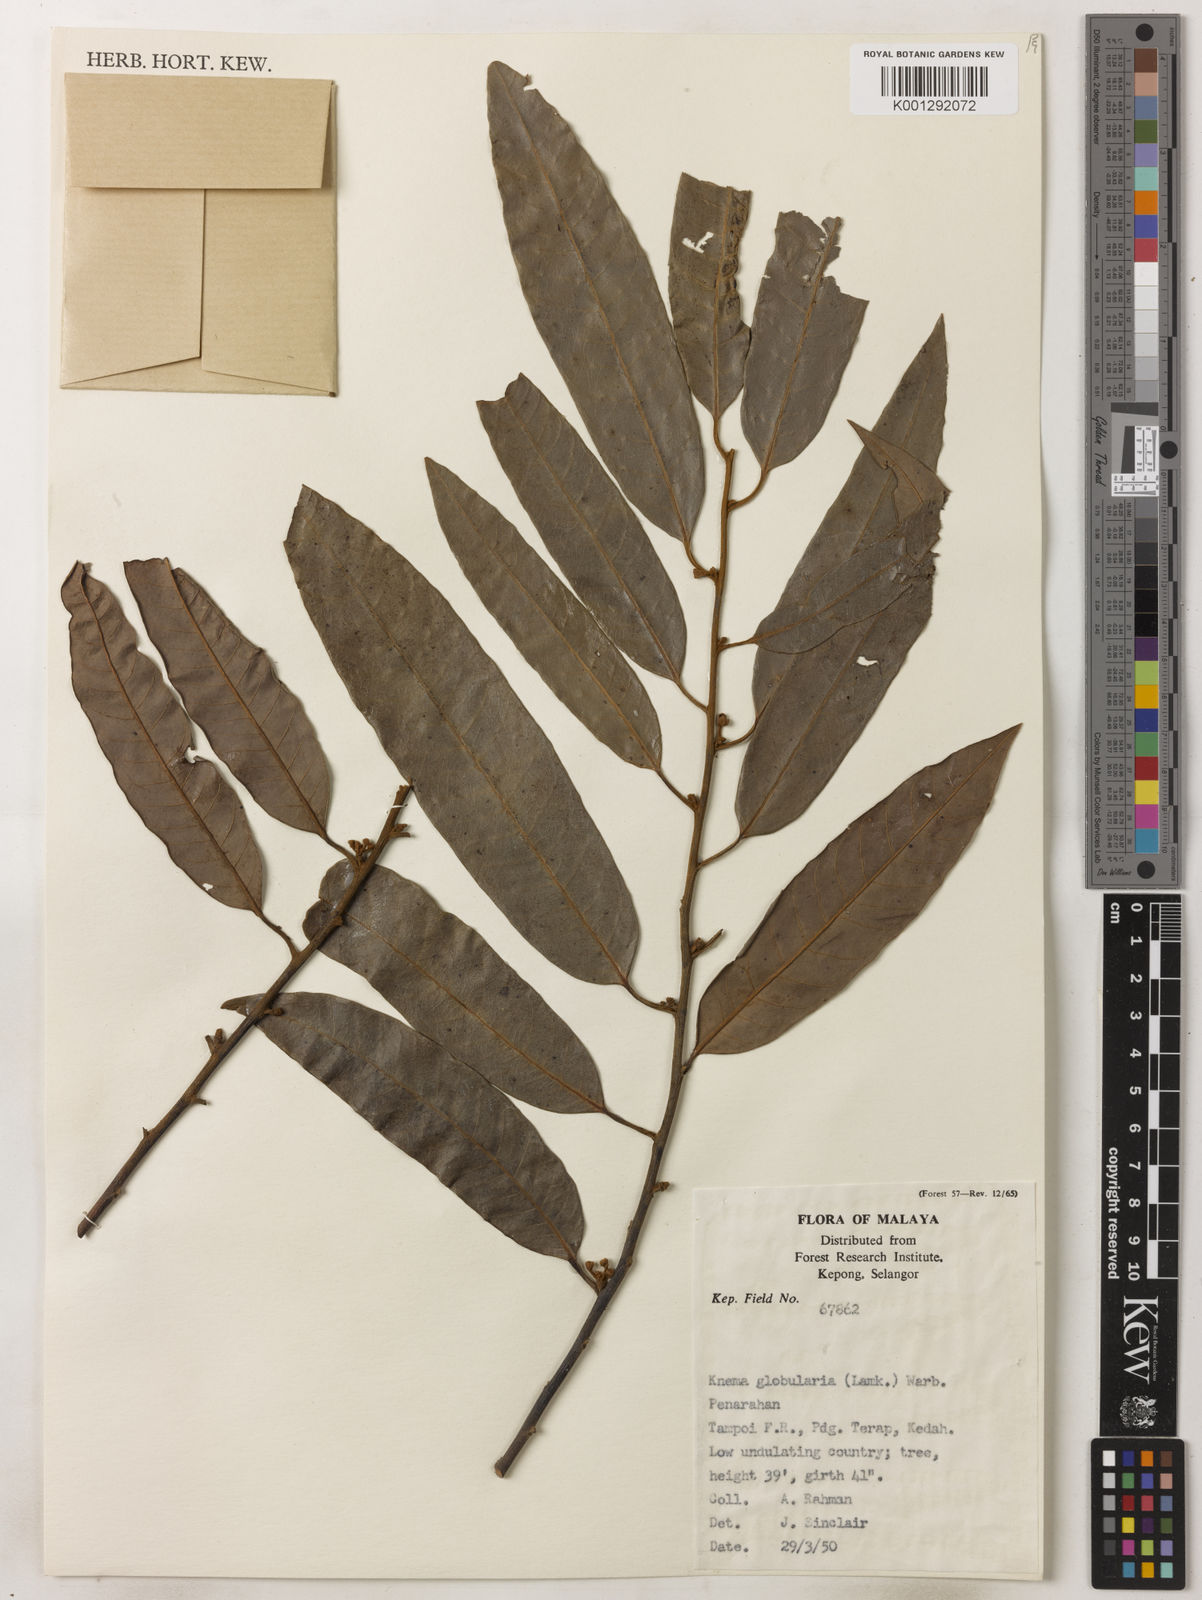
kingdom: Plantae
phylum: Tracheophyta
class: Magnoliopsida
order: Magnoliales
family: Myristicaceae
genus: Knema
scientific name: Knema globularia
